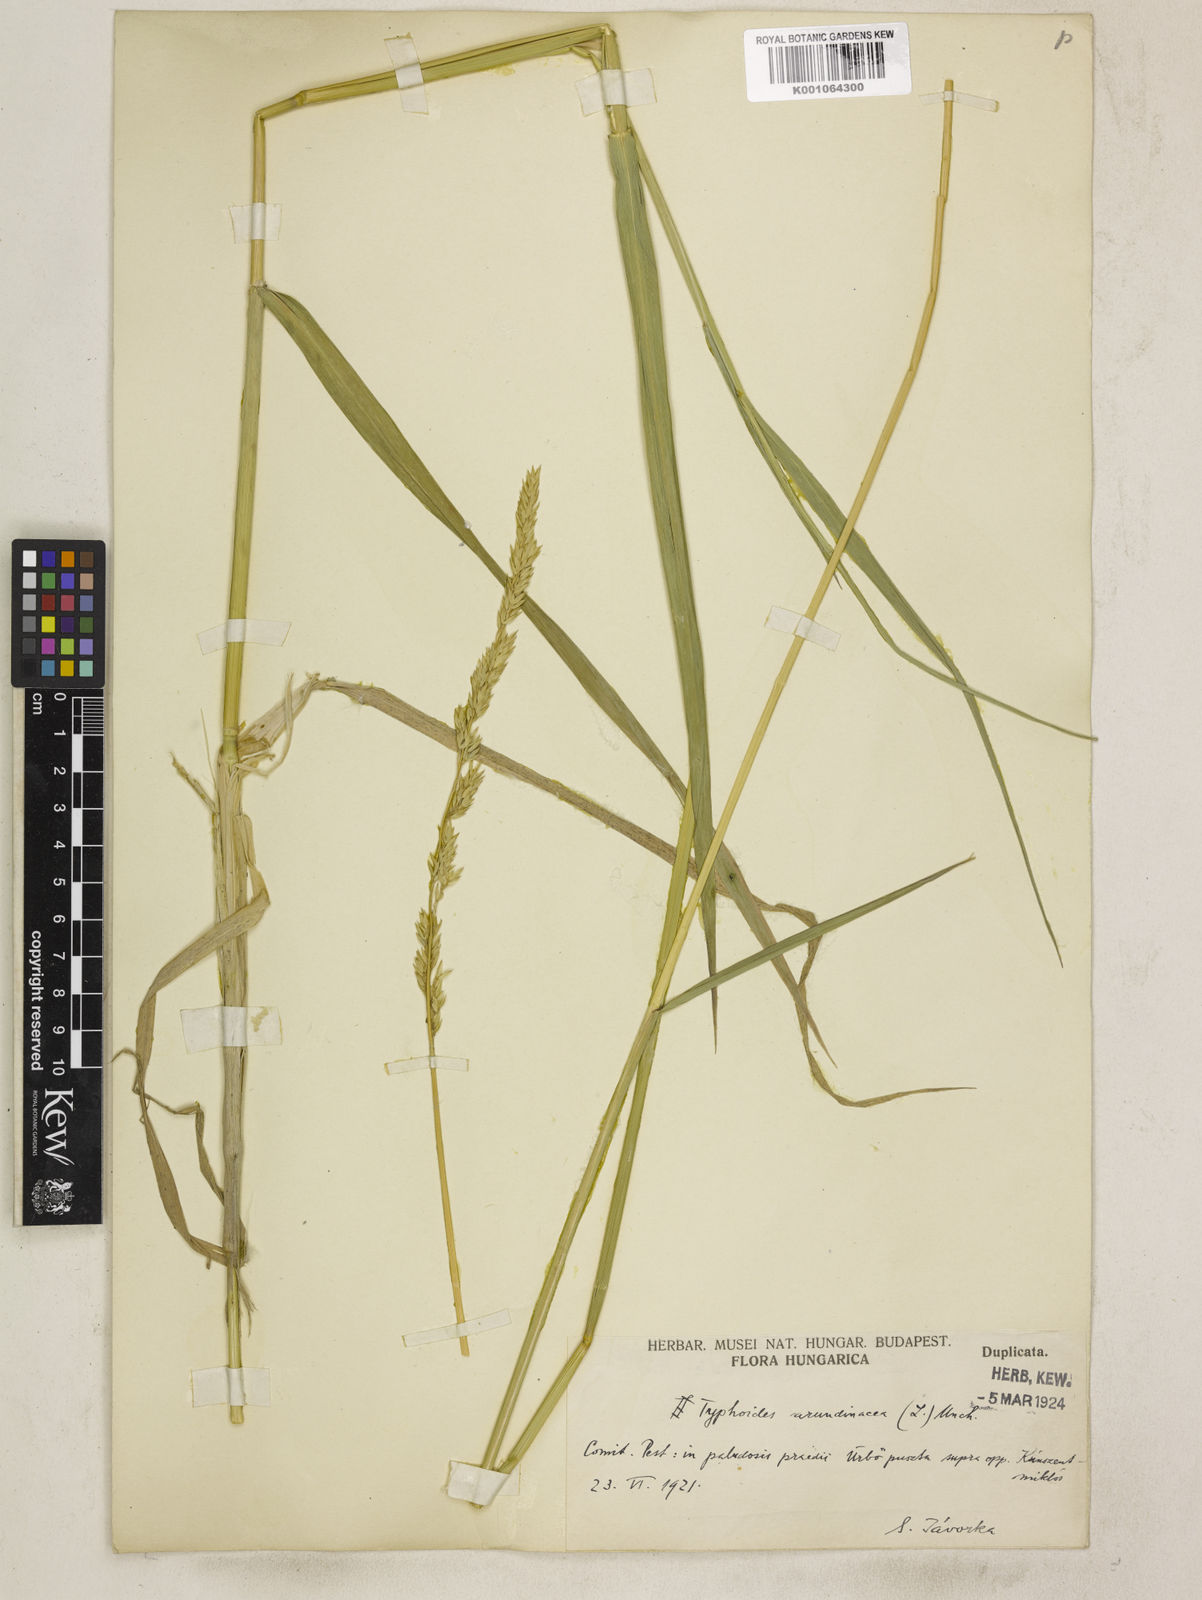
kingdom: Plantae
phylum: Tracheophyta
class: Liliopsida
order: Poales
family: Poaceae
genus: Phalaris
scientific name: Phalaris arundinacea
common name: Reed canary-grass
